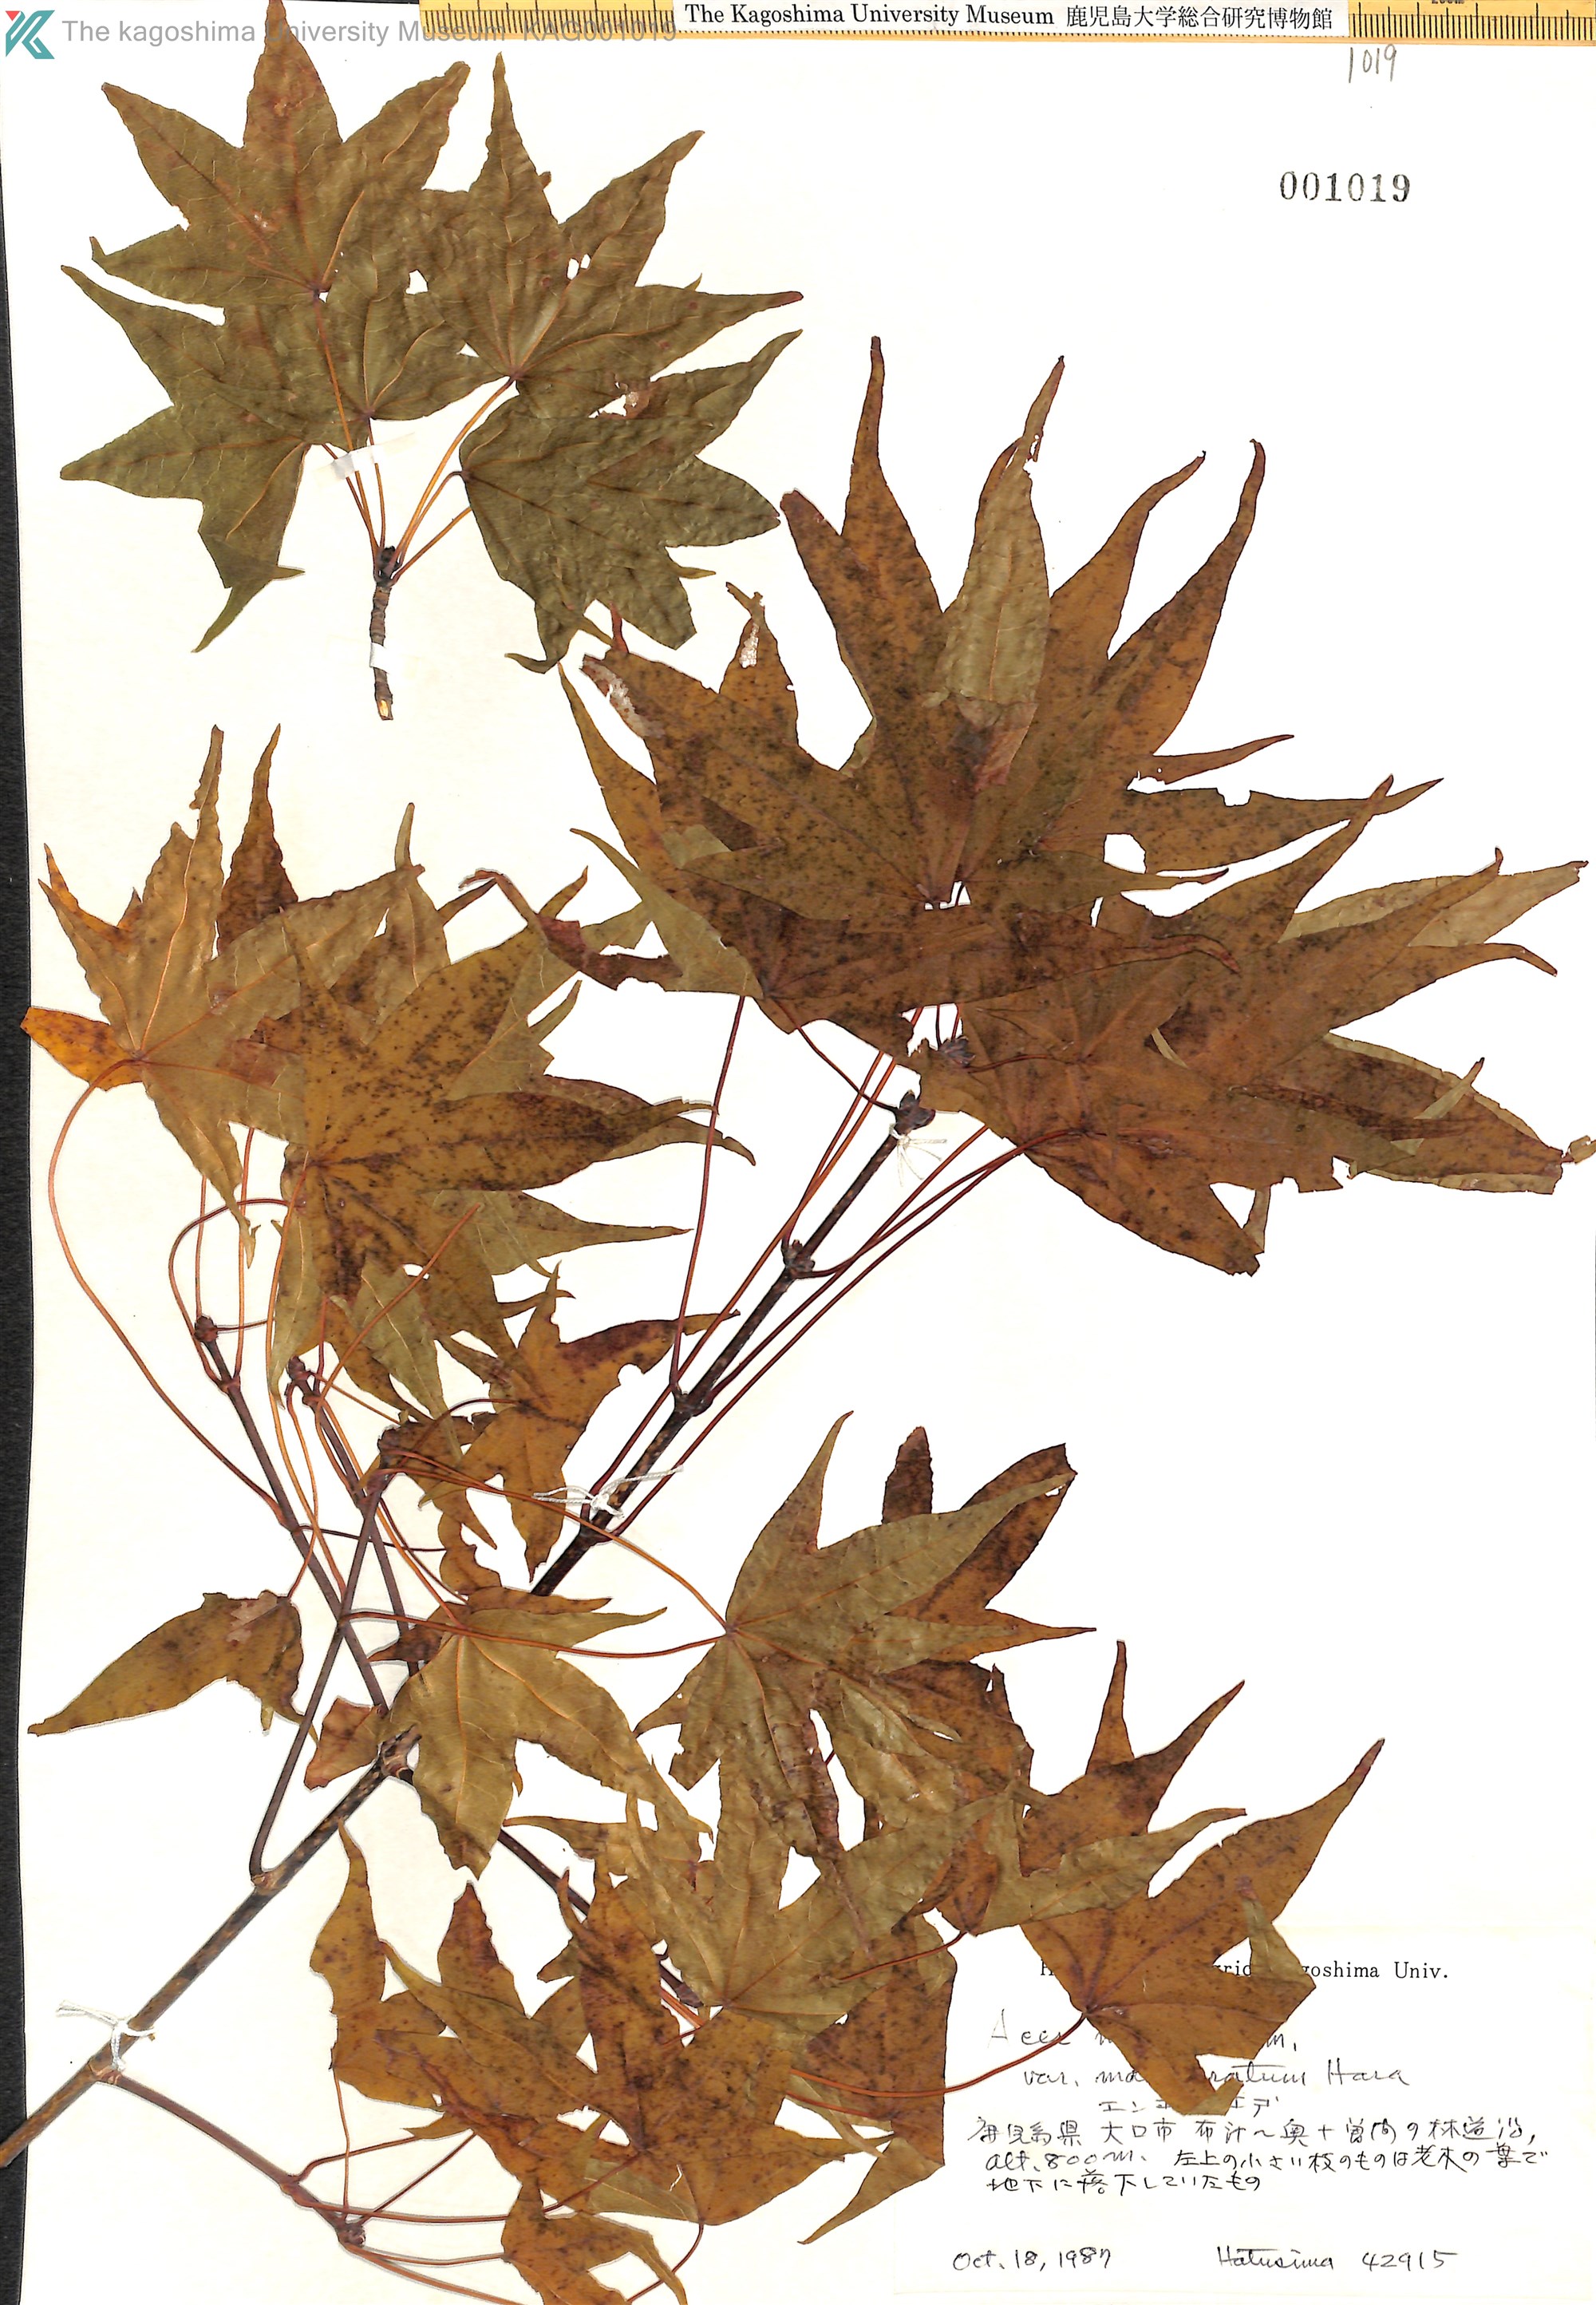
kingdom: Plantae
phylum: Tracheophyta
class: Magnoliopsida
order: Sapindales
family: Sapindaceae
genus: Acer
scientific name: Acer pictum
